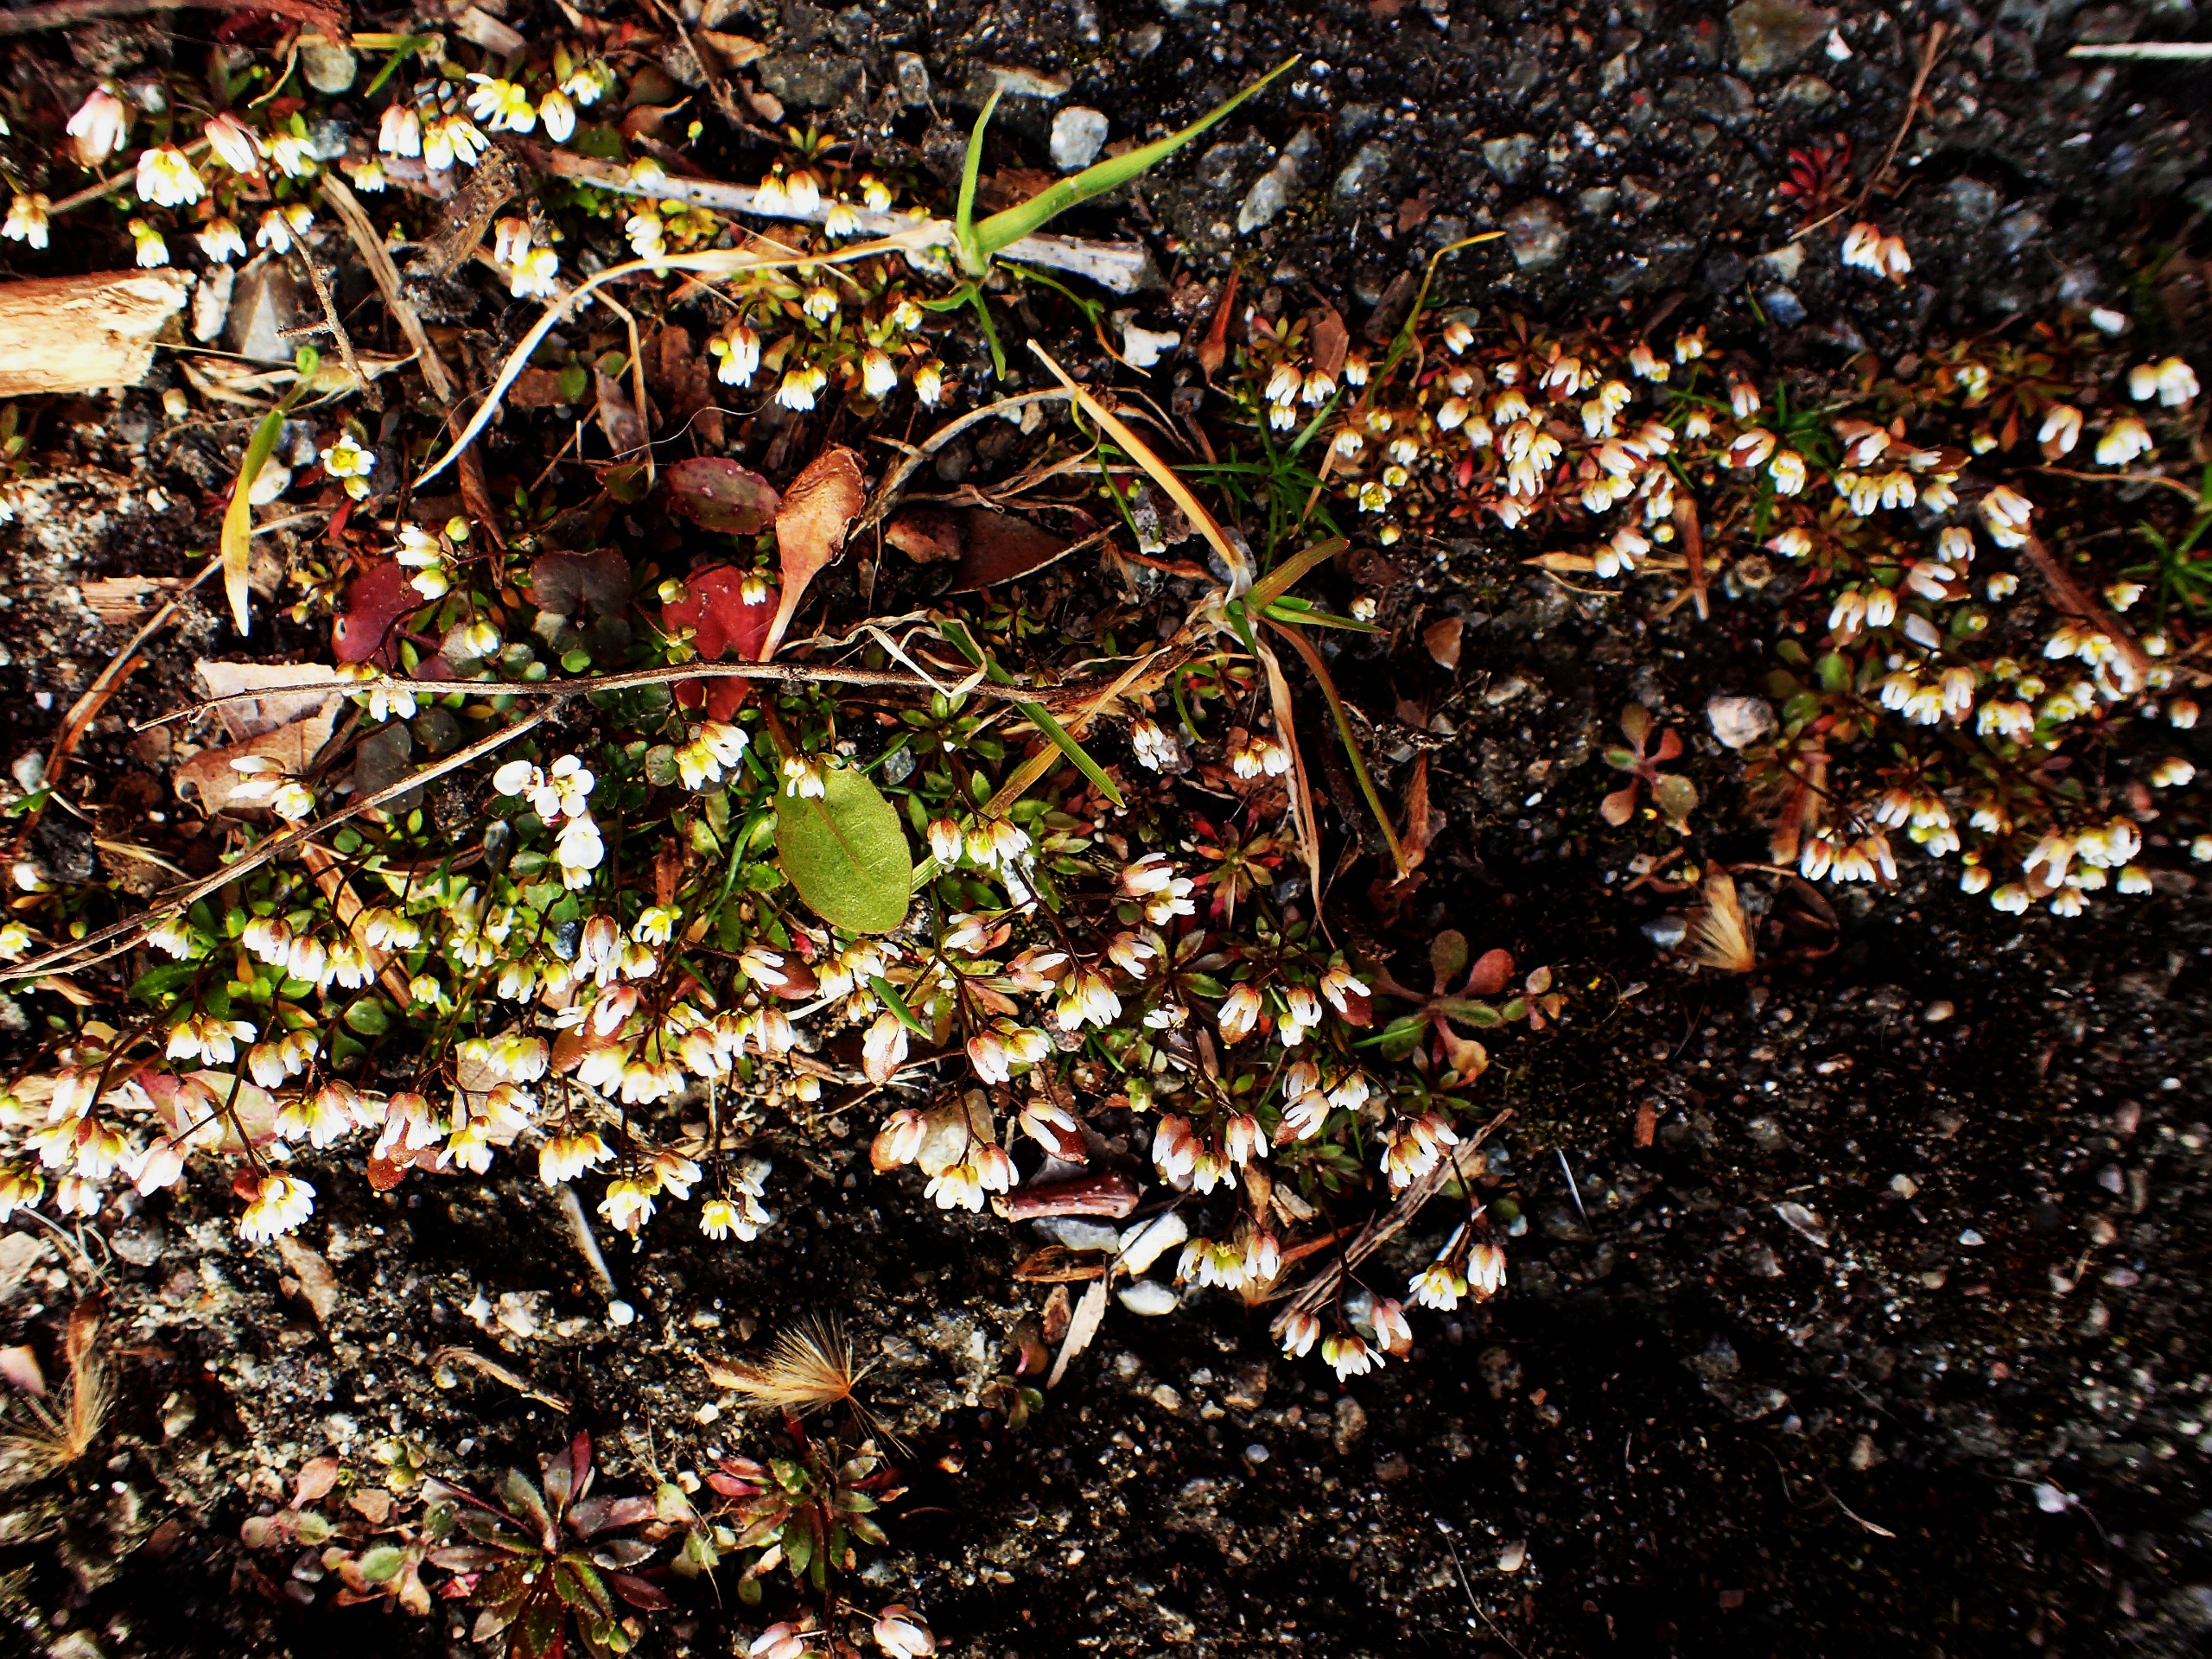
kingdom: Plantae
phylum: Tracheophyta
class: Magnoliopsida
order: Brassicales
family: Brassicaceae
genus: Draba
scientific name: Draba verna
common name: Vår-gæslingeblomst
